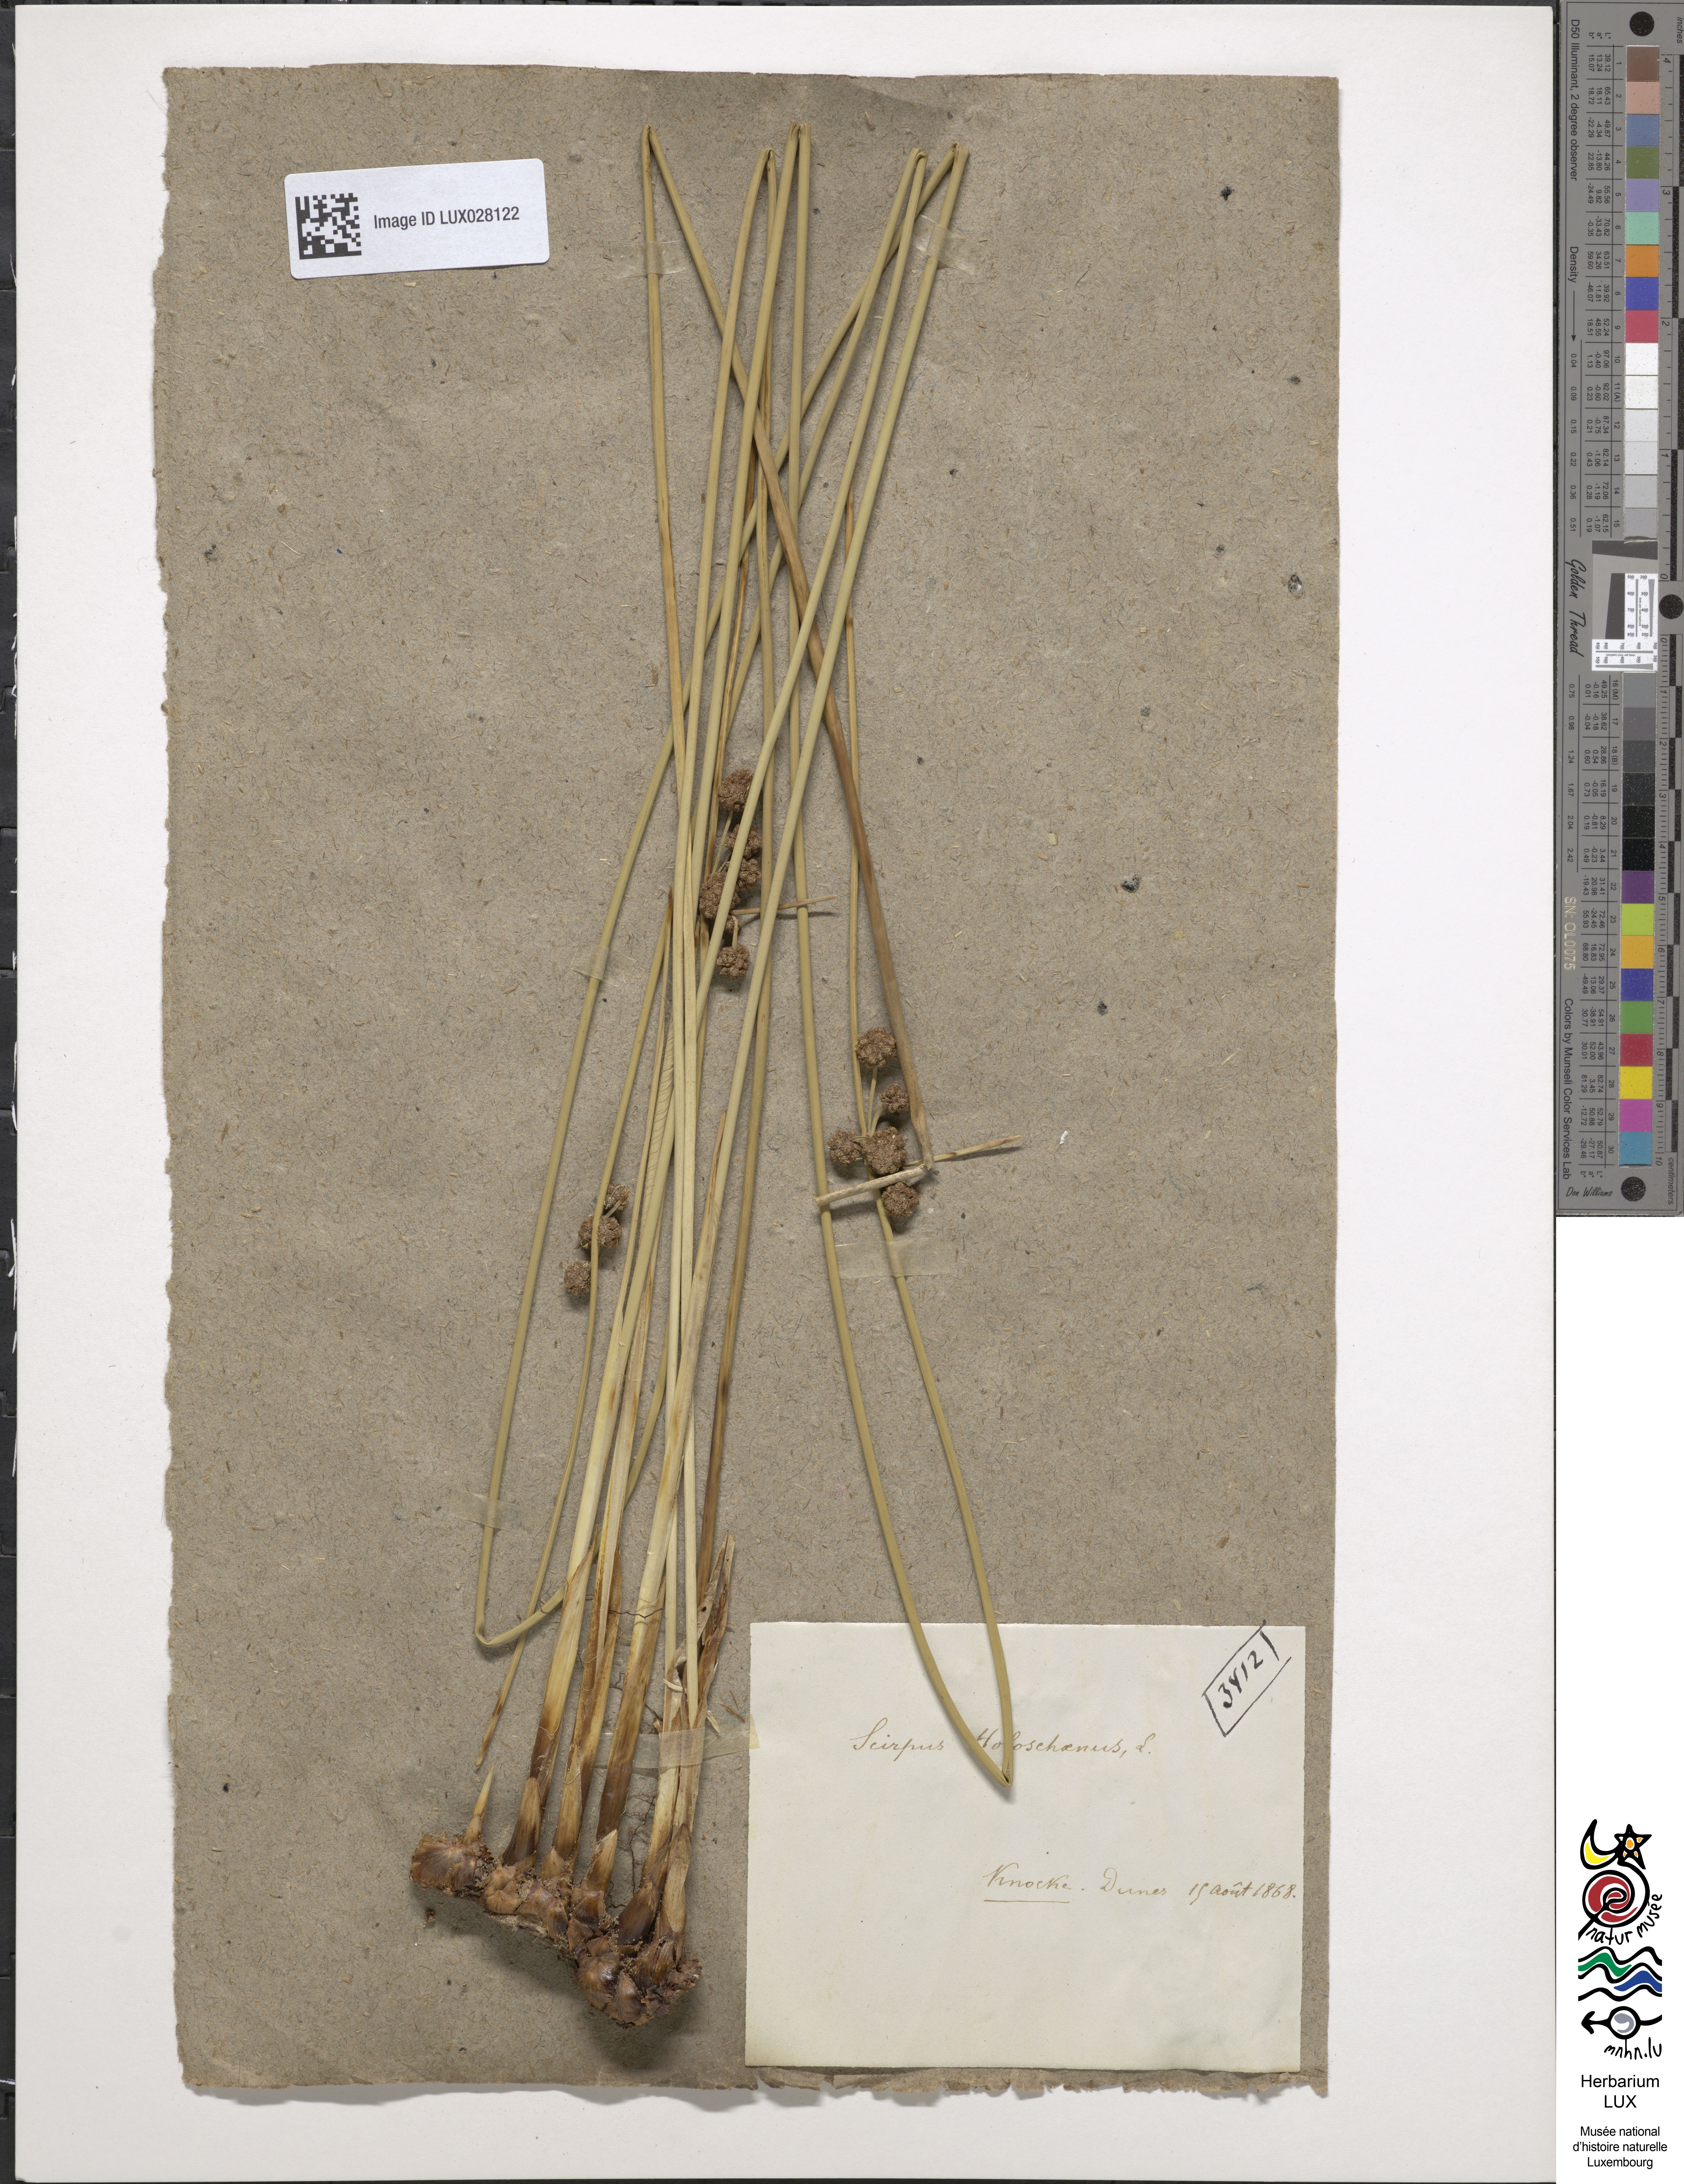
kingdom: Plantae
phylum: Tracheophyta
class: Liliopsida
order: Poales
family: Cyperaceae
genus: Scirpoides
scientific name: Scirpoides holoschoenus
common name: Round-headed club-rush
